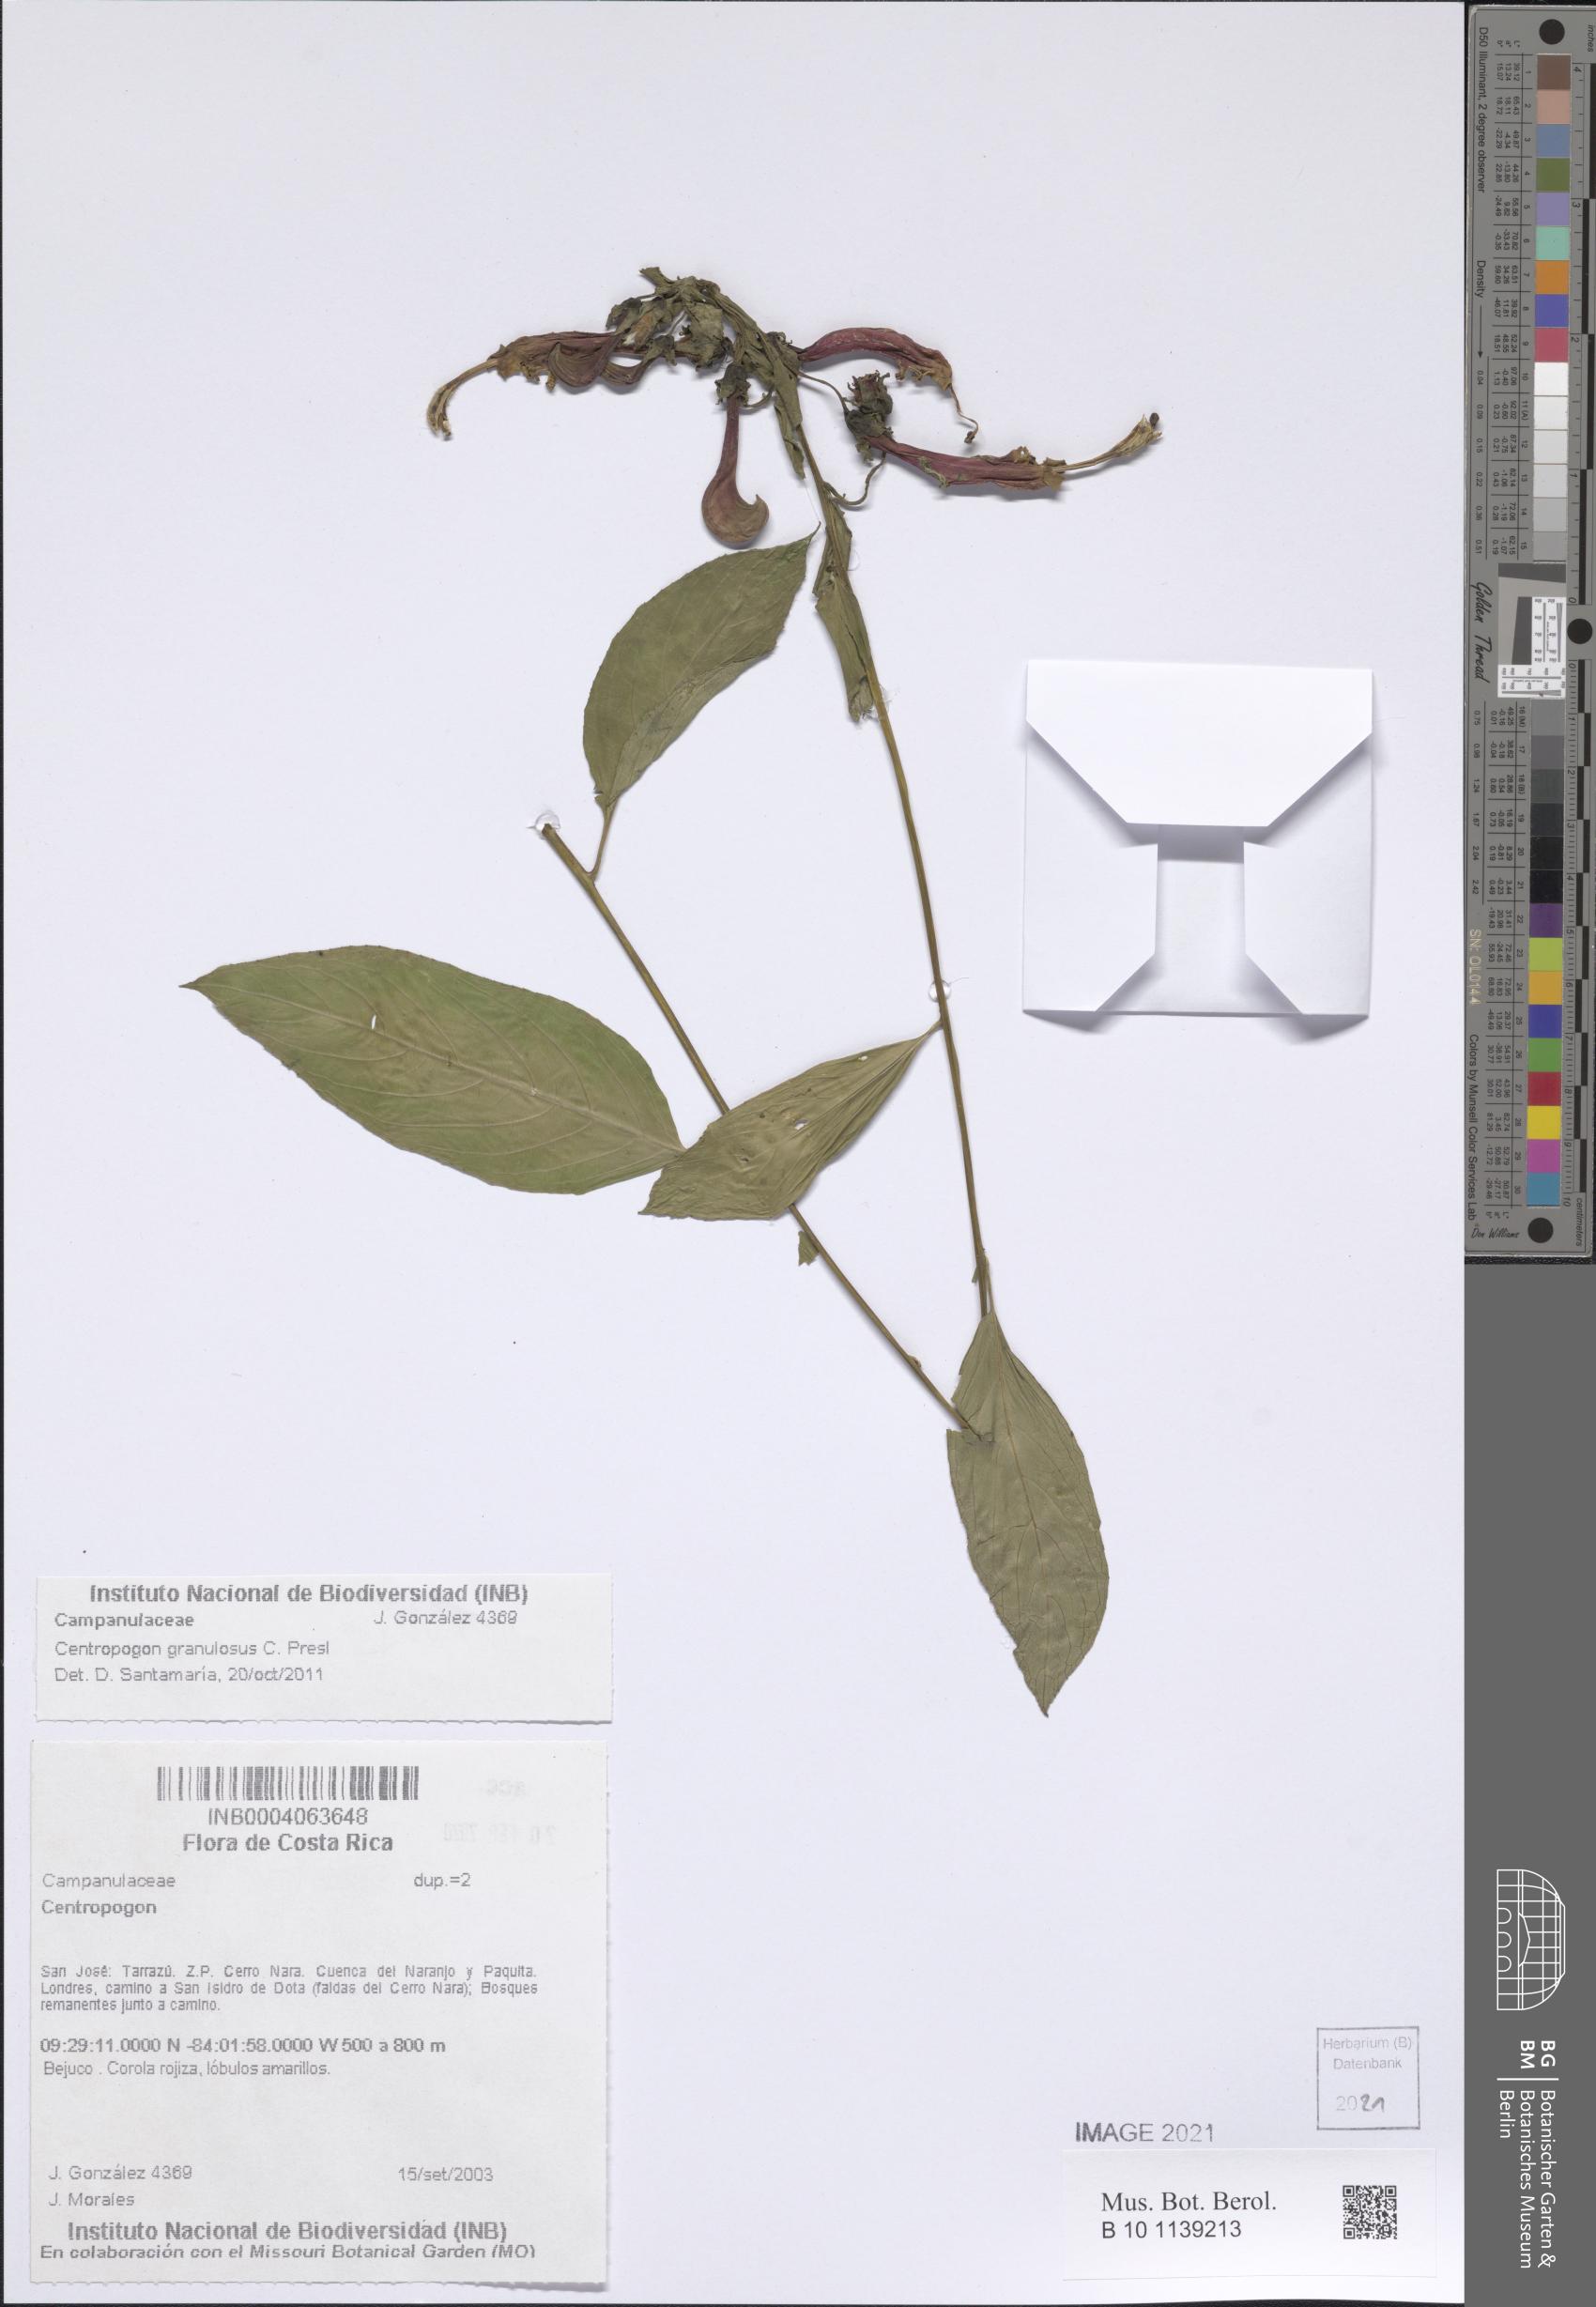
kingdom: Plantae
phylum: Tracheophyta
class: Magnoliopsida
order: Asterales
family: Campanulaceae
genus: Centropogon
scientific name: Centropogon granulosus
